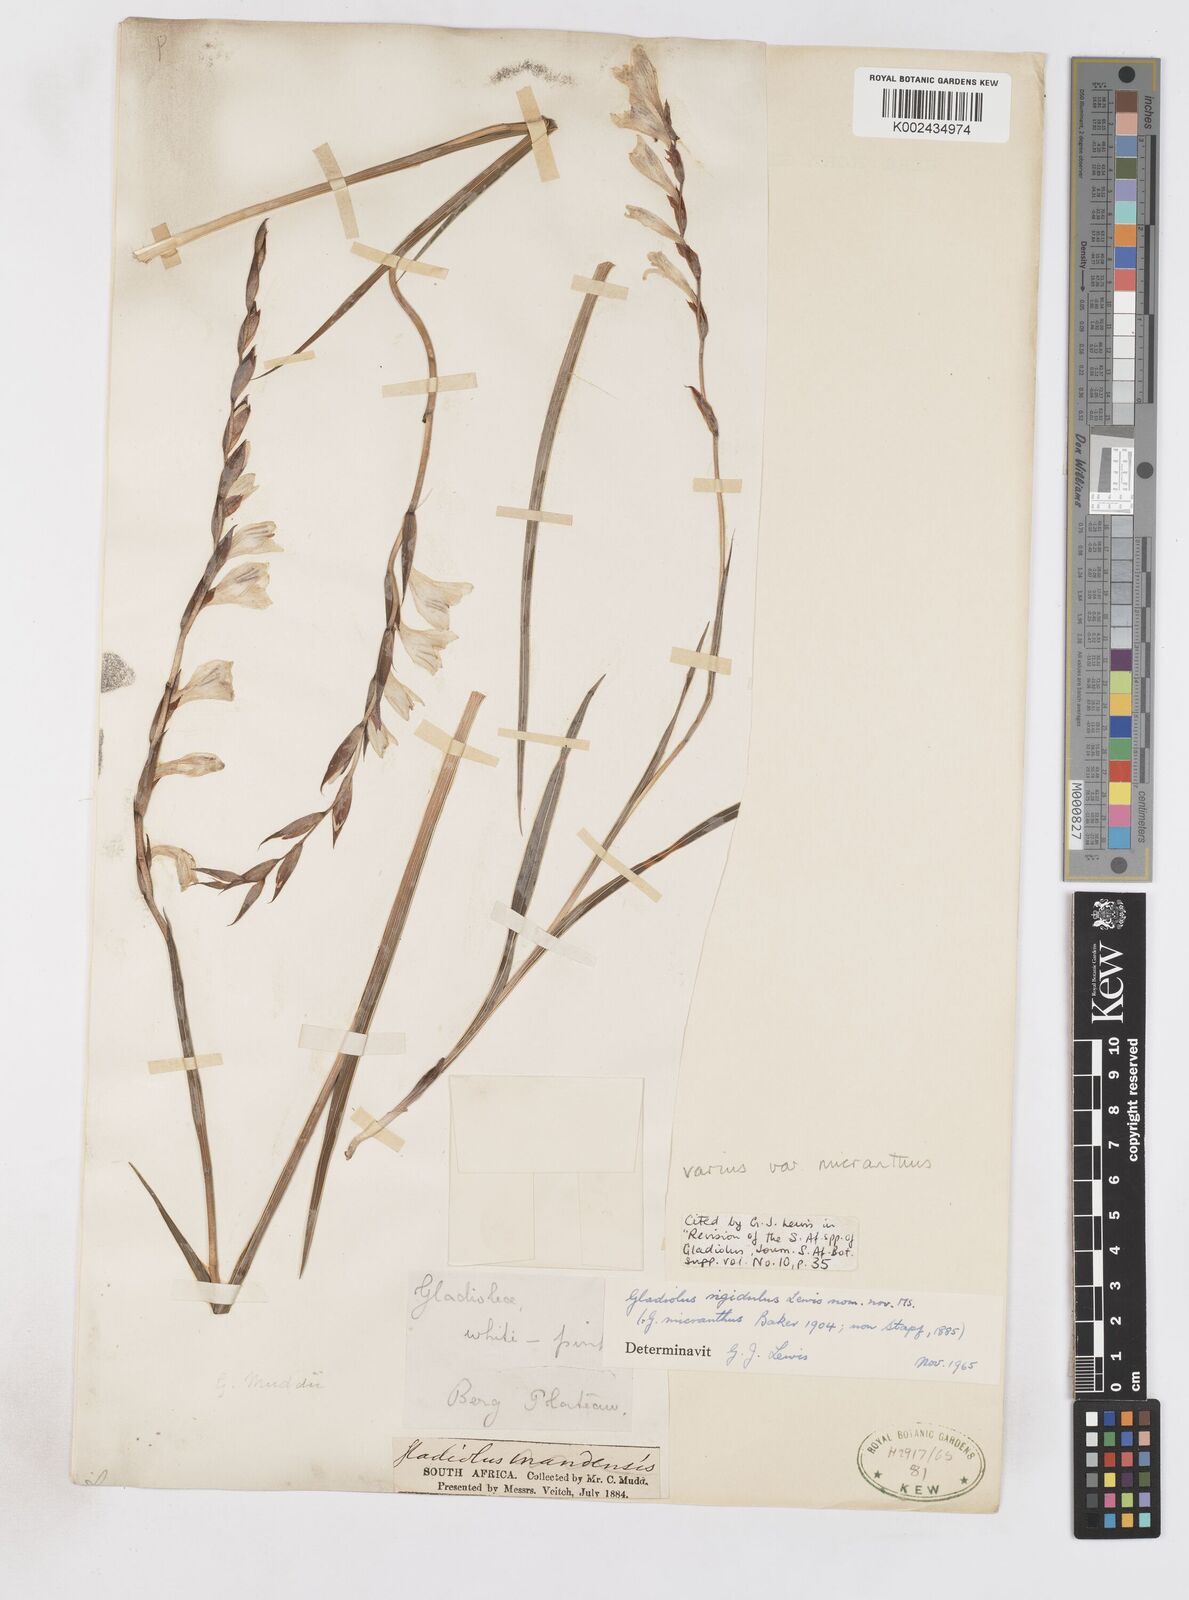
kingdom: Plantae
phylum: Tracheophyta
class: Liliopsida
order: Asparagales
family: Iridaceae
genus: Gladiolus
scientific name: Gladiolus ferrugineus
